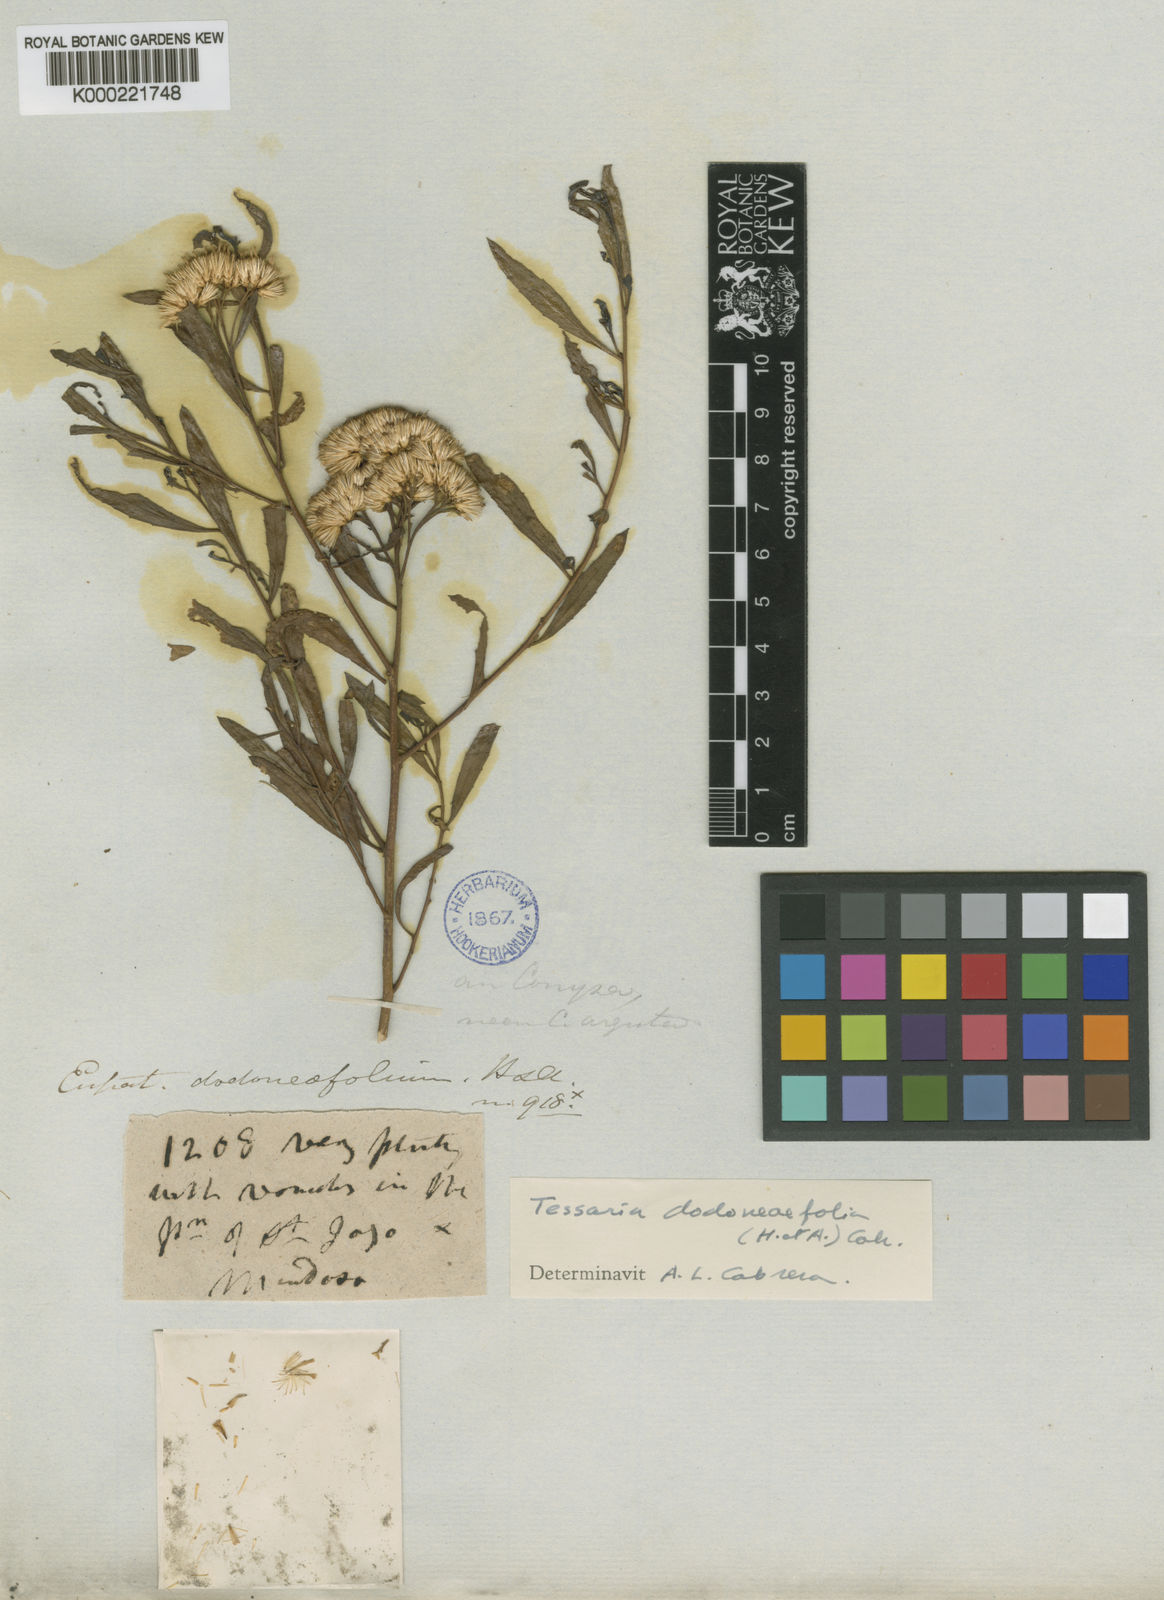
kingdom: Plantae
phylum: Tracheophyta
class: Magnoliopsida
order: Asterales
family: Asteraceae
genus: Tessaria
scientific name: Tessaria dodonaeifolia
